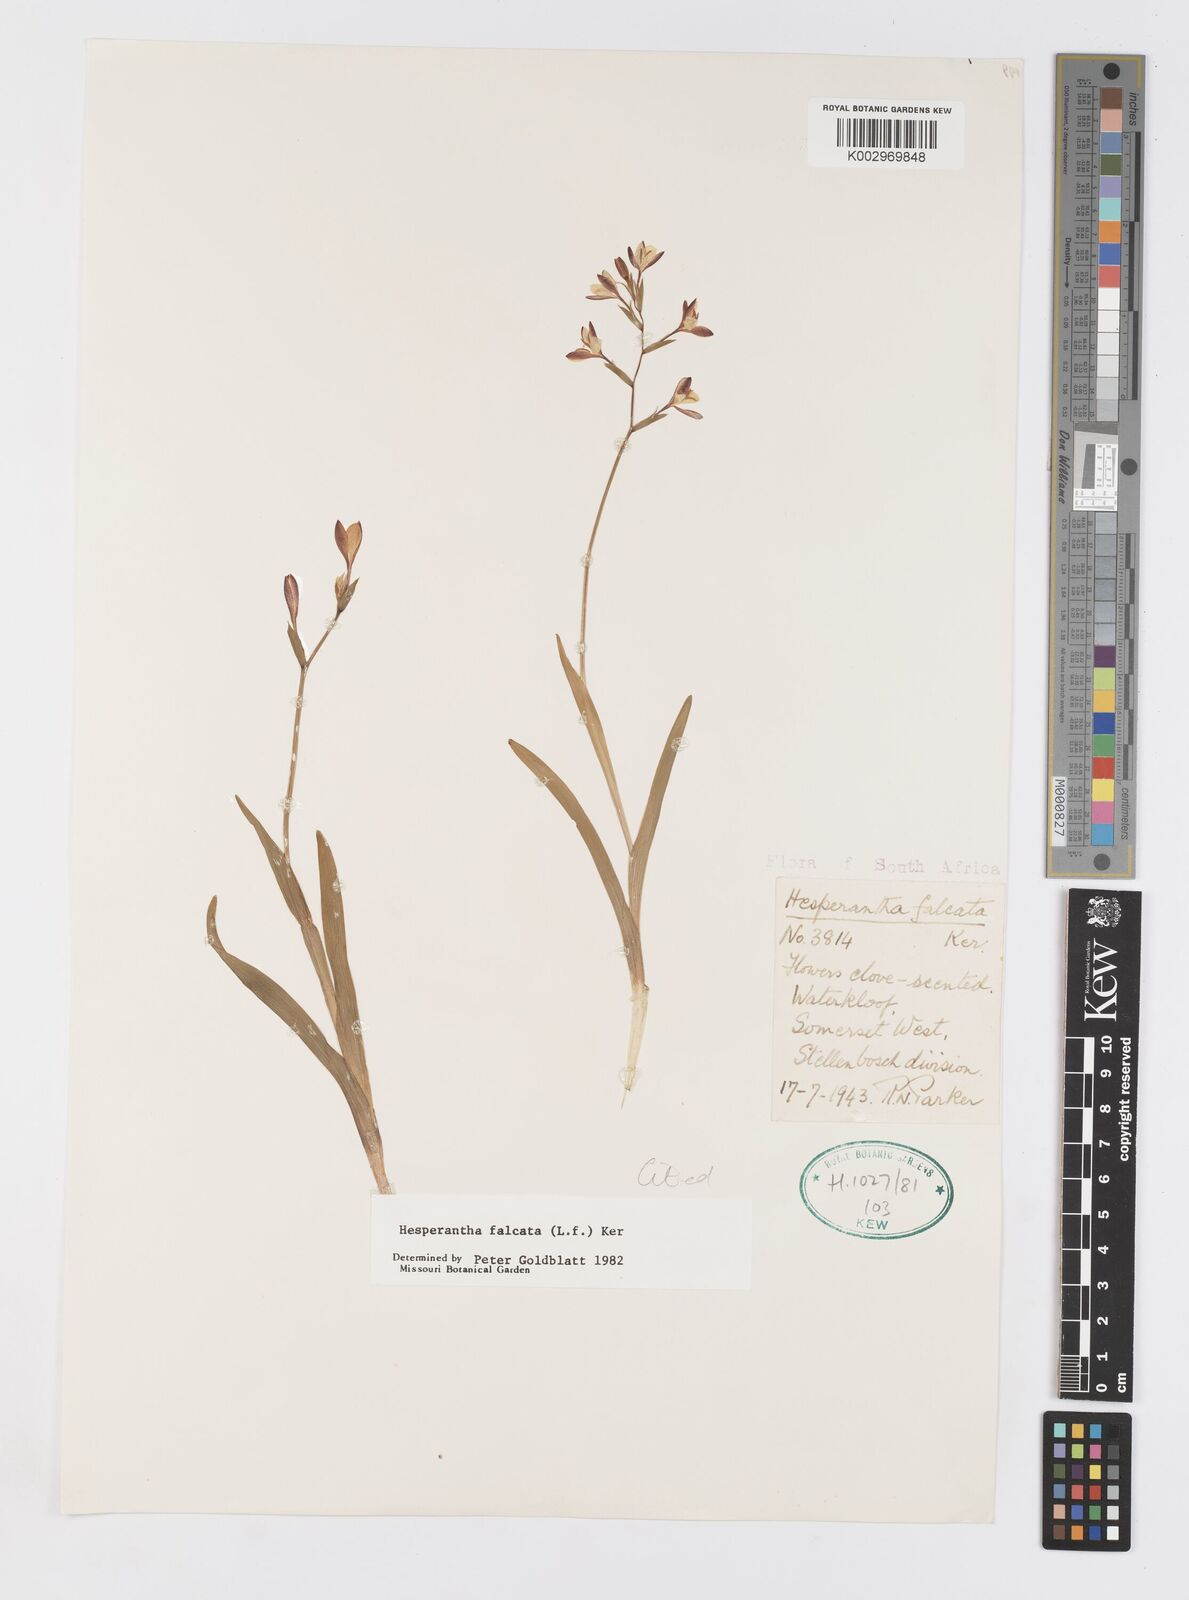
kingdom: Plantae
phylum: Tracheophyta
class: Liliopsida
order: Asparagales
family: Iridaceae
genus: Hesperantha
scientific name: Hesperantha falcata
